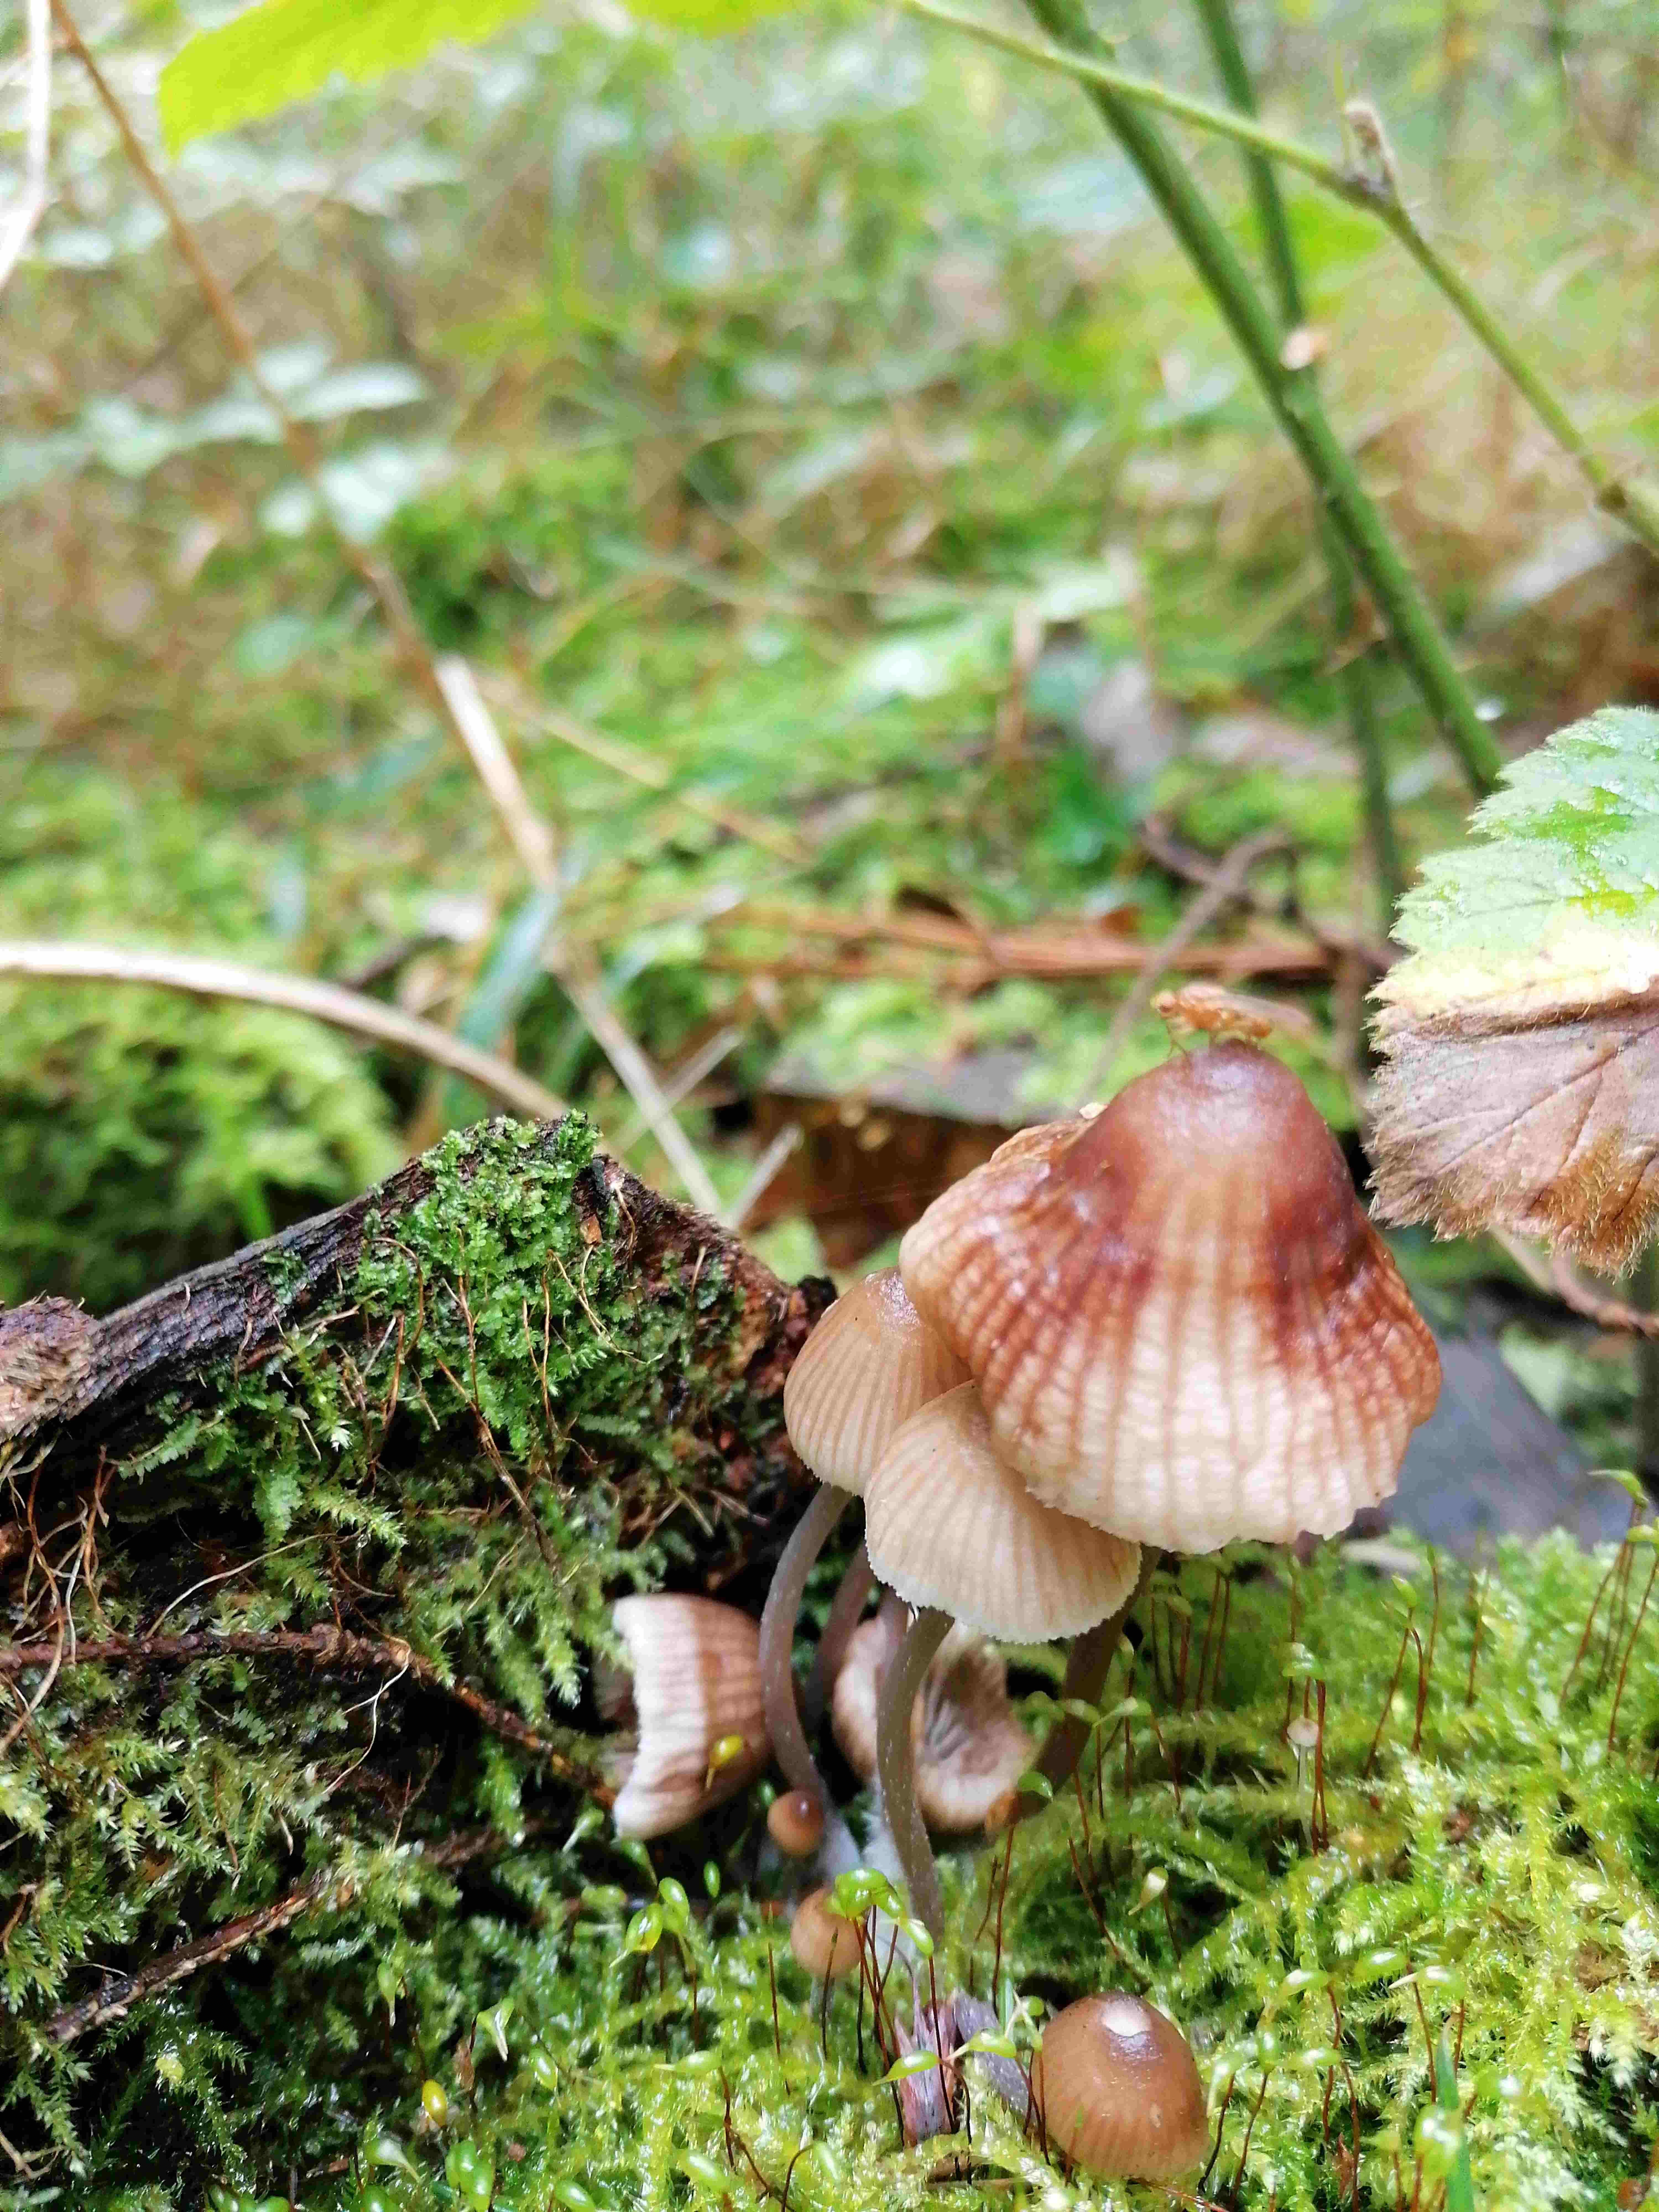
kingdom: Fungi
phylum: Basidiomycota
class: Agaricomycetes
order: Agaricales
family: Mycenaceae
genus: Mycena
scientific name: Mycena
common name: huesvamp
